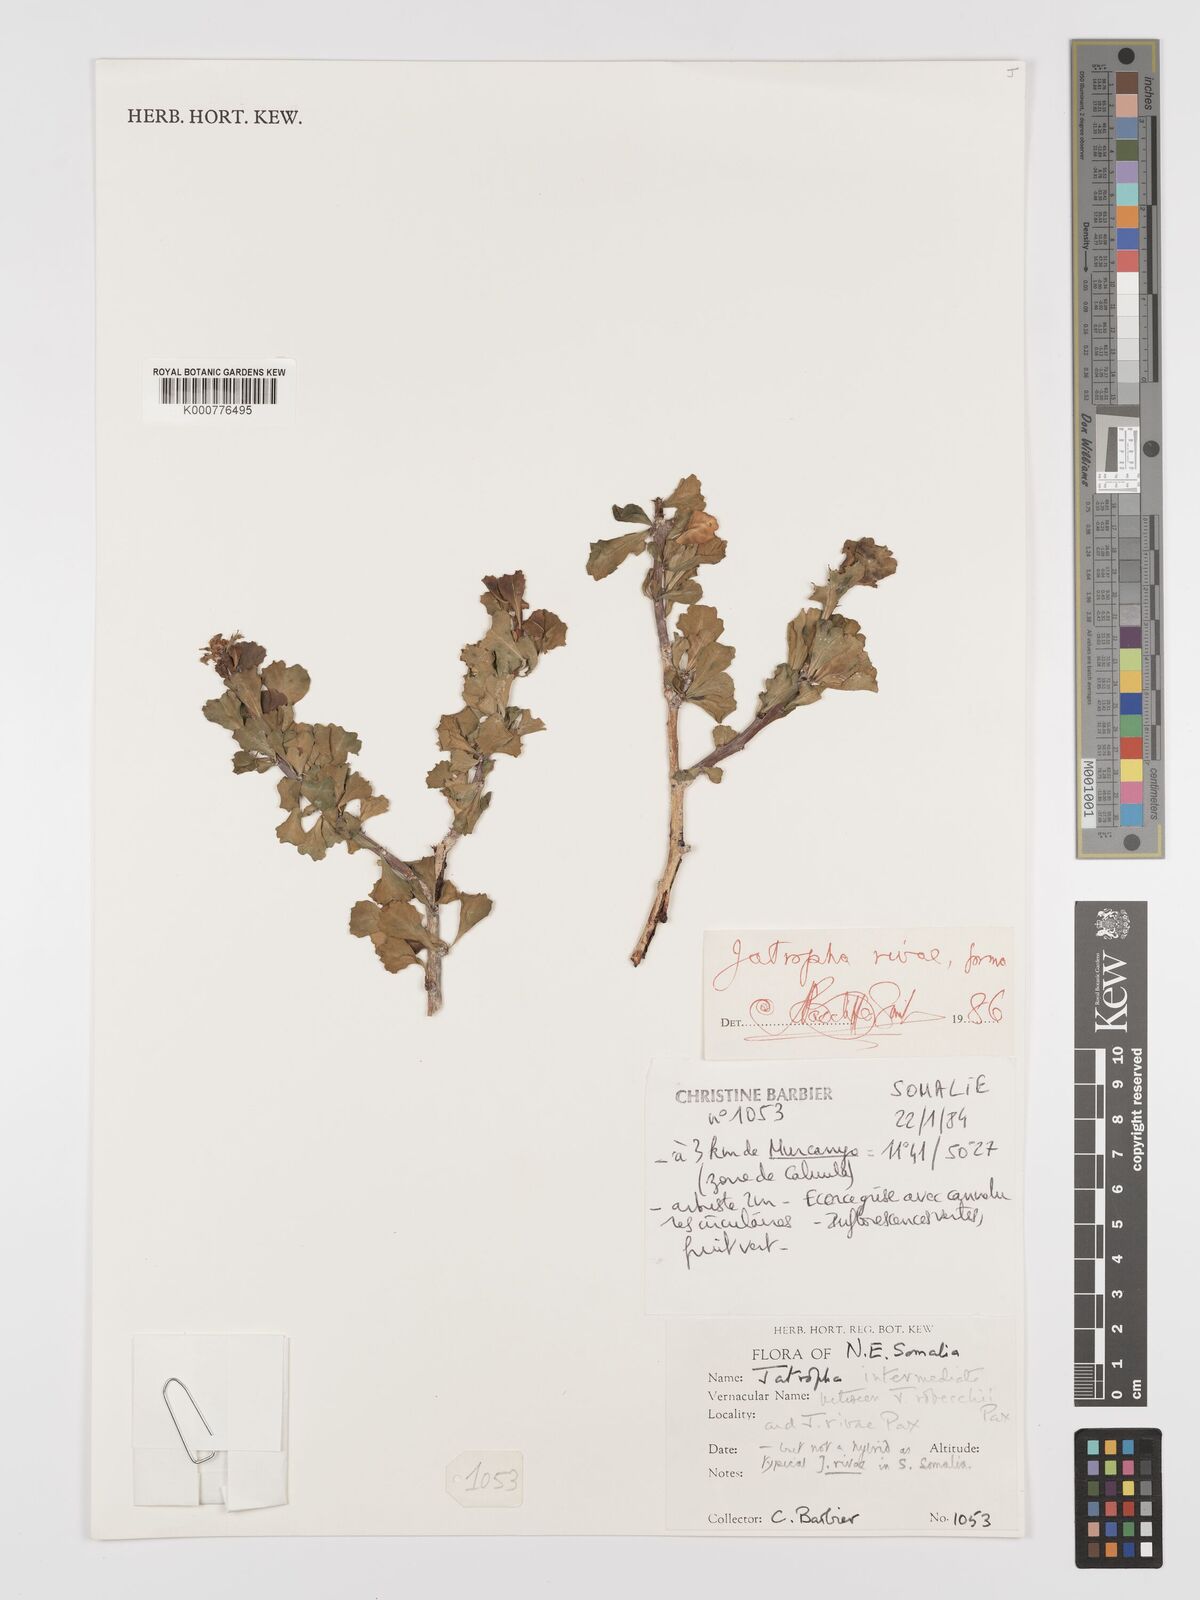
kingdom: Plantae
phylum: Tracheophyta
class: Magnoliopsida
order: Malpighiales
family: Euphorbiaceae
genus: Jatropha
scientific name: Jatropha robecchii
